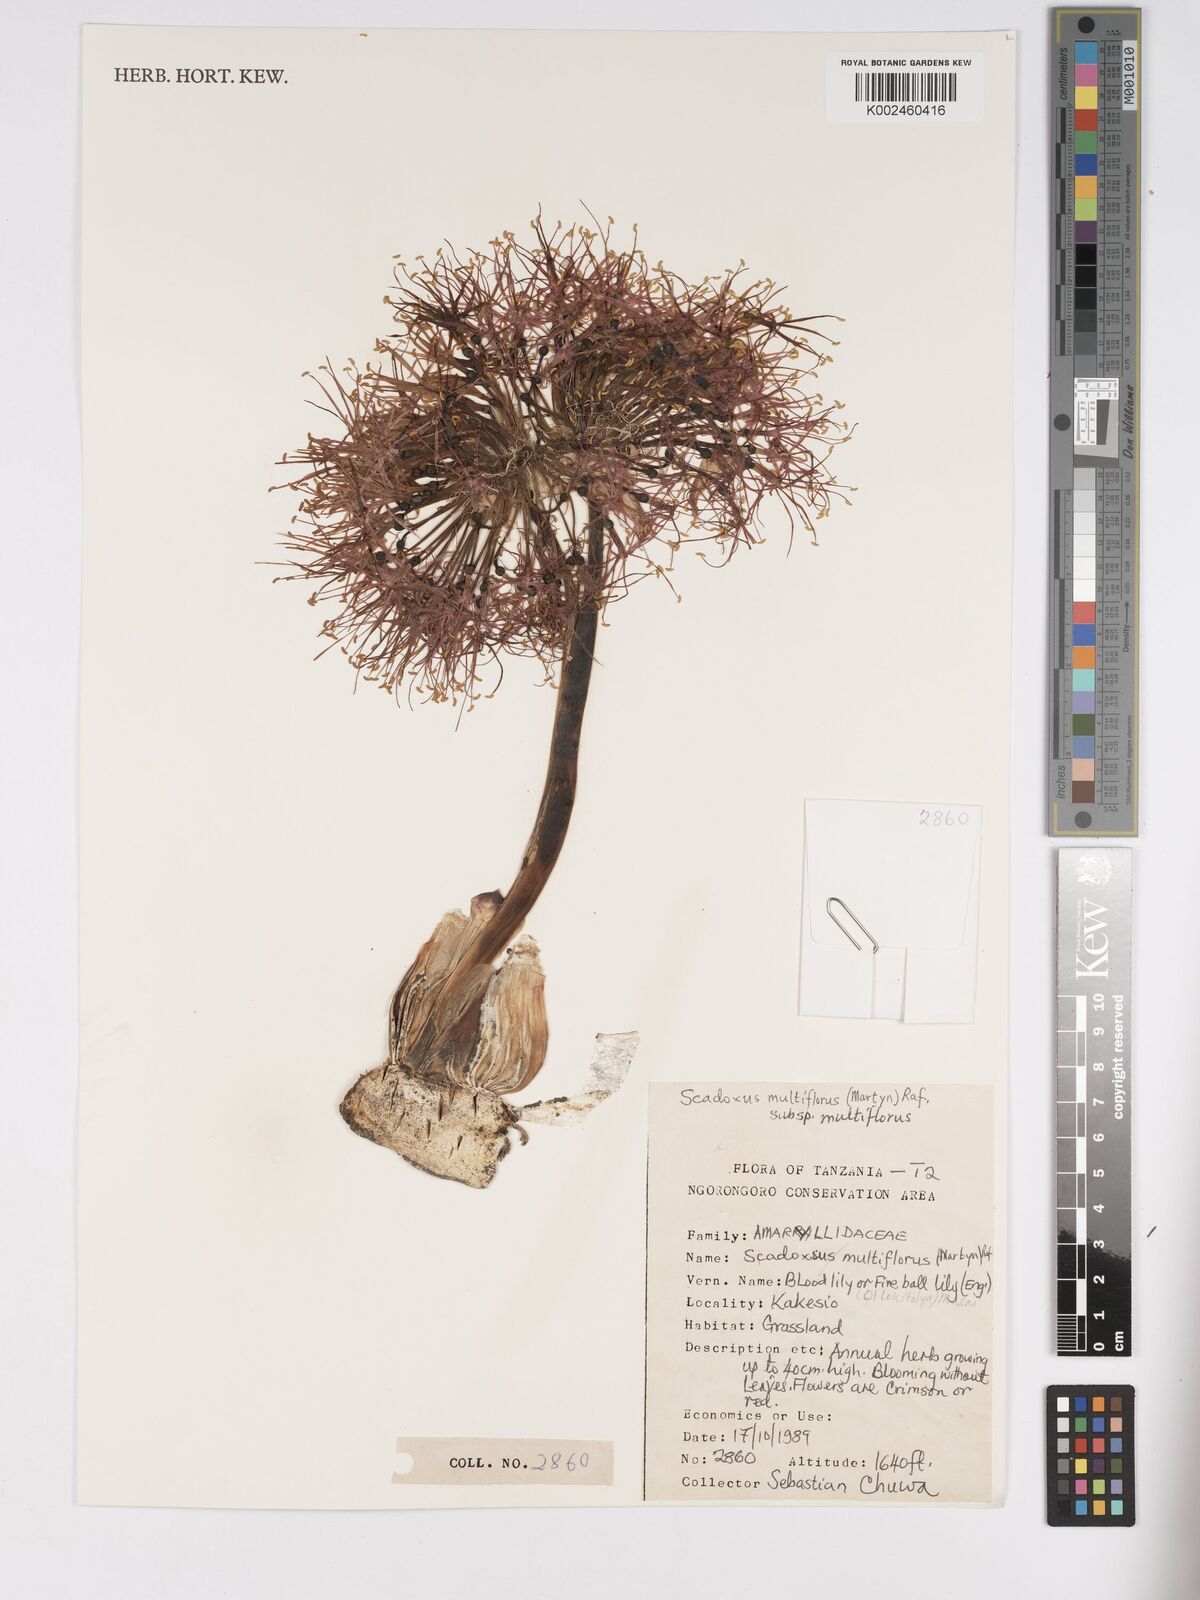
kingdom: Plantae
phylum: Tracheophyta
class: Liliopsida
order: Asparagales
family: Amaryllidaceae
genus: Scadoxus
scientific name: Scadoxus multiflorus
